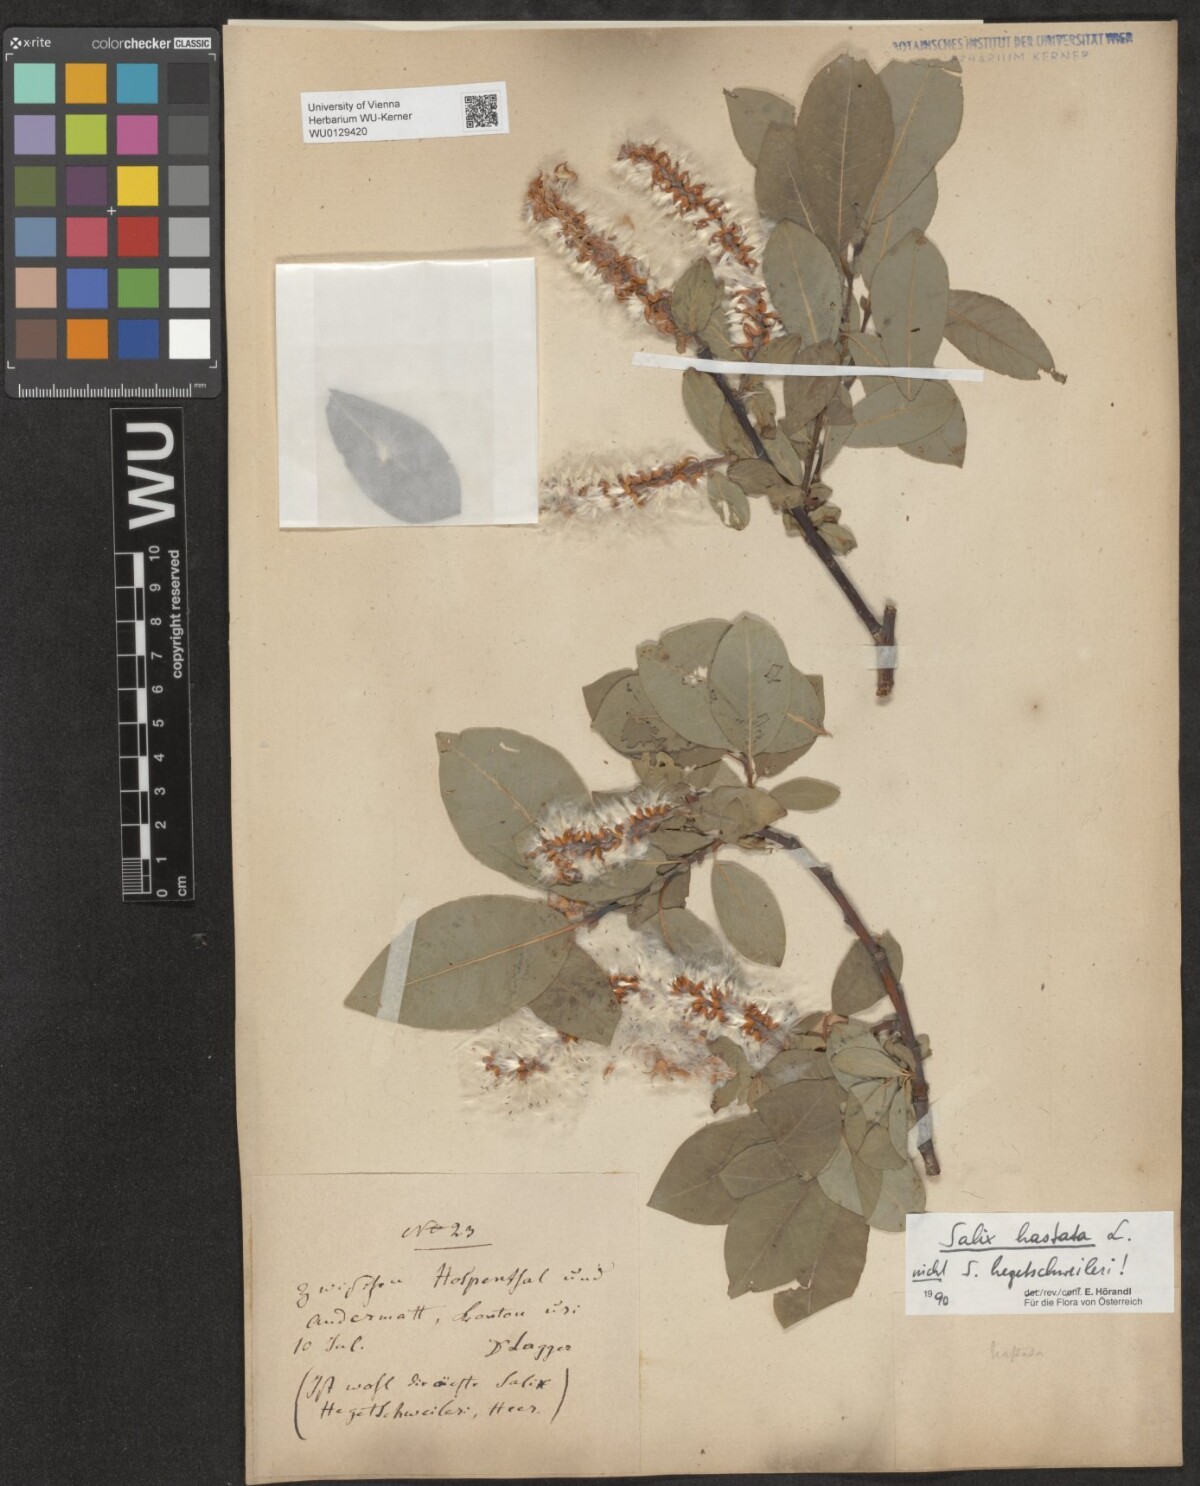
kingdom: Plantae
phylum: Tracheophyta
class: Magnoliopsida
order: Malpighiales
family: Salicaceae
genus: Salix
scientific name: Salix hastata
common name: Halberd willow
